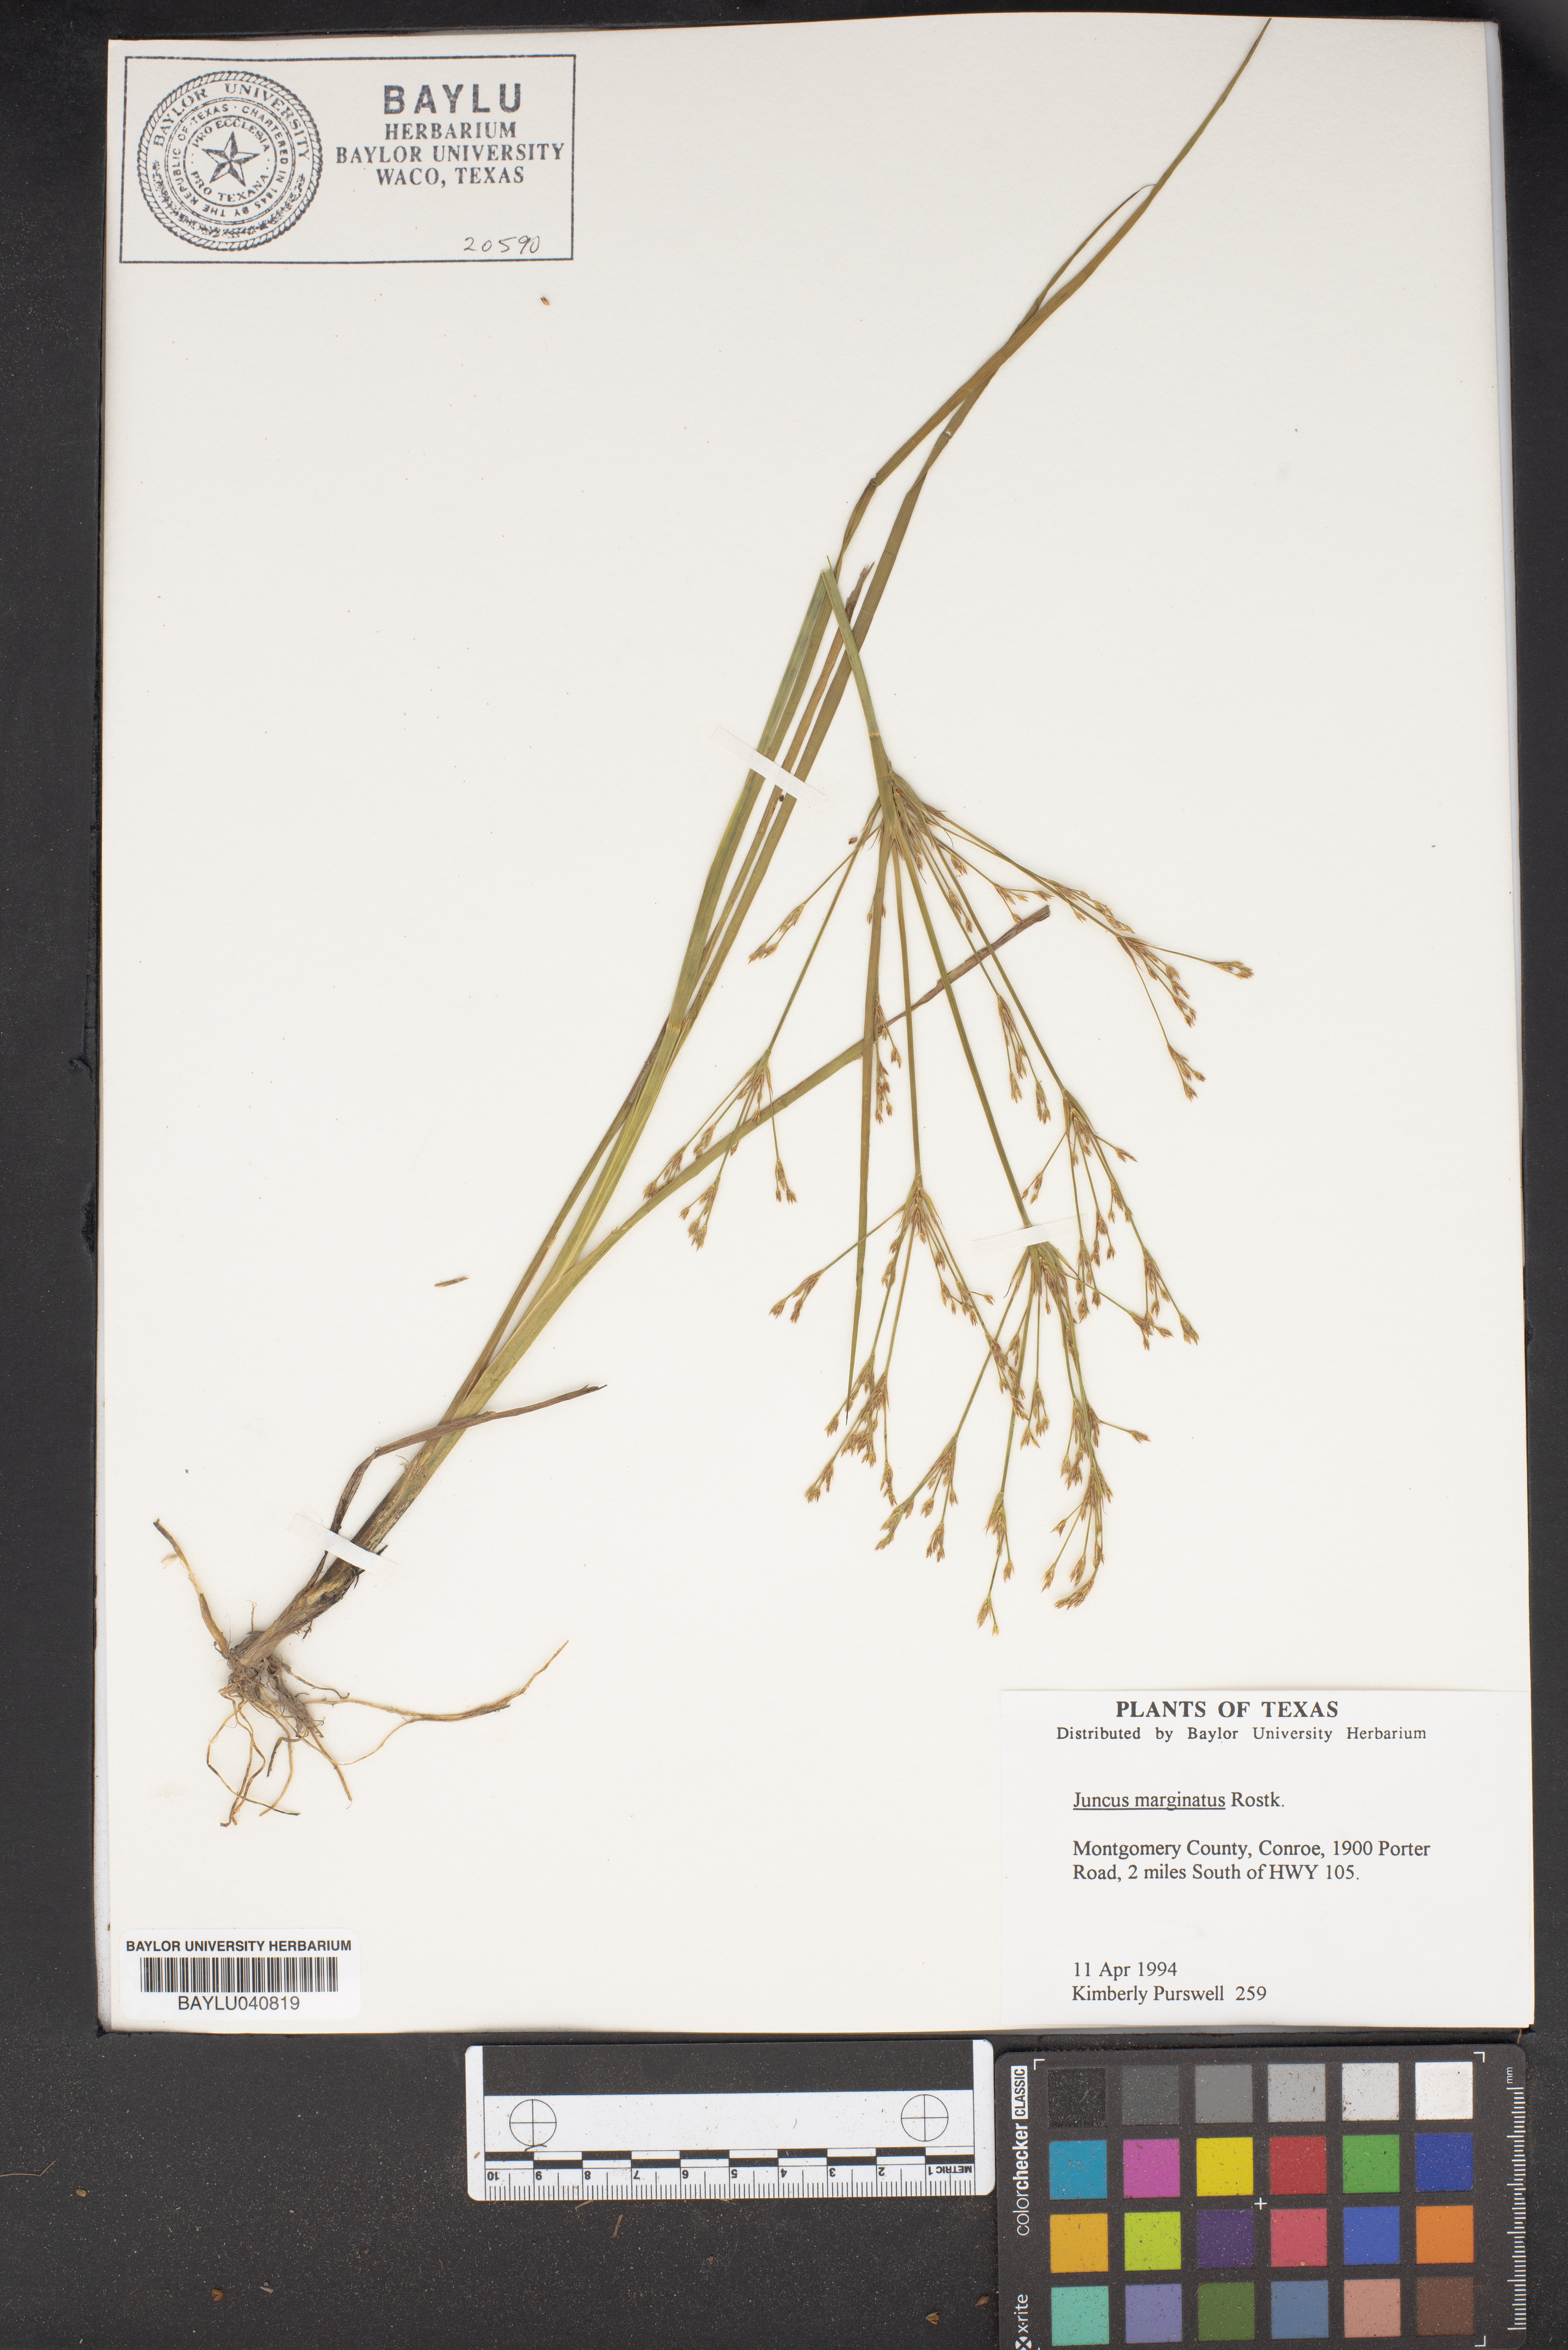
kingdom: Plantae
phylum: Tracheophyta
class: Liliopsida
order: Poales
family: Juncaceae
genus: Juncus
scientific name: Juncus marginatus
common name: Grass-leaf rush
